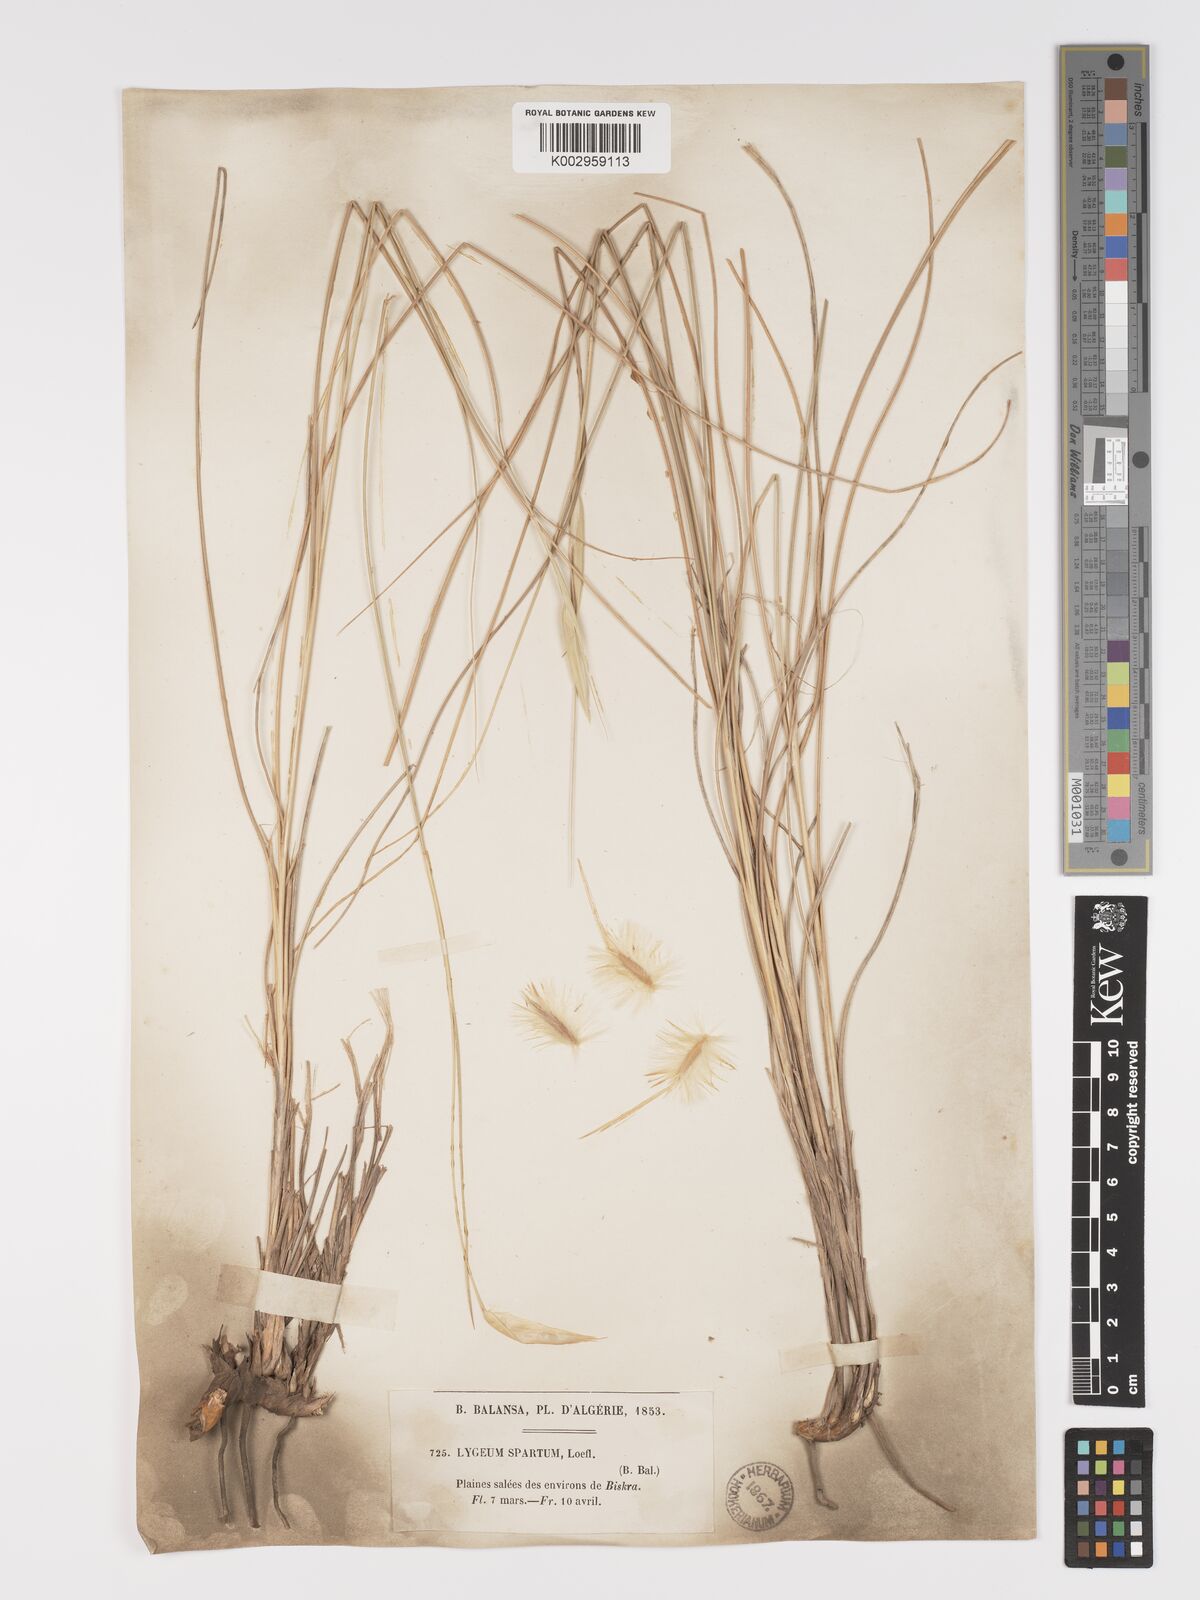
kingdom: Plantae
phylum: Tracheophyta
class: Liliopsida
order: Poales
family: Poaceae
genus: Lygeum
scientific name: Lygeum spartum
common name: Albardine
